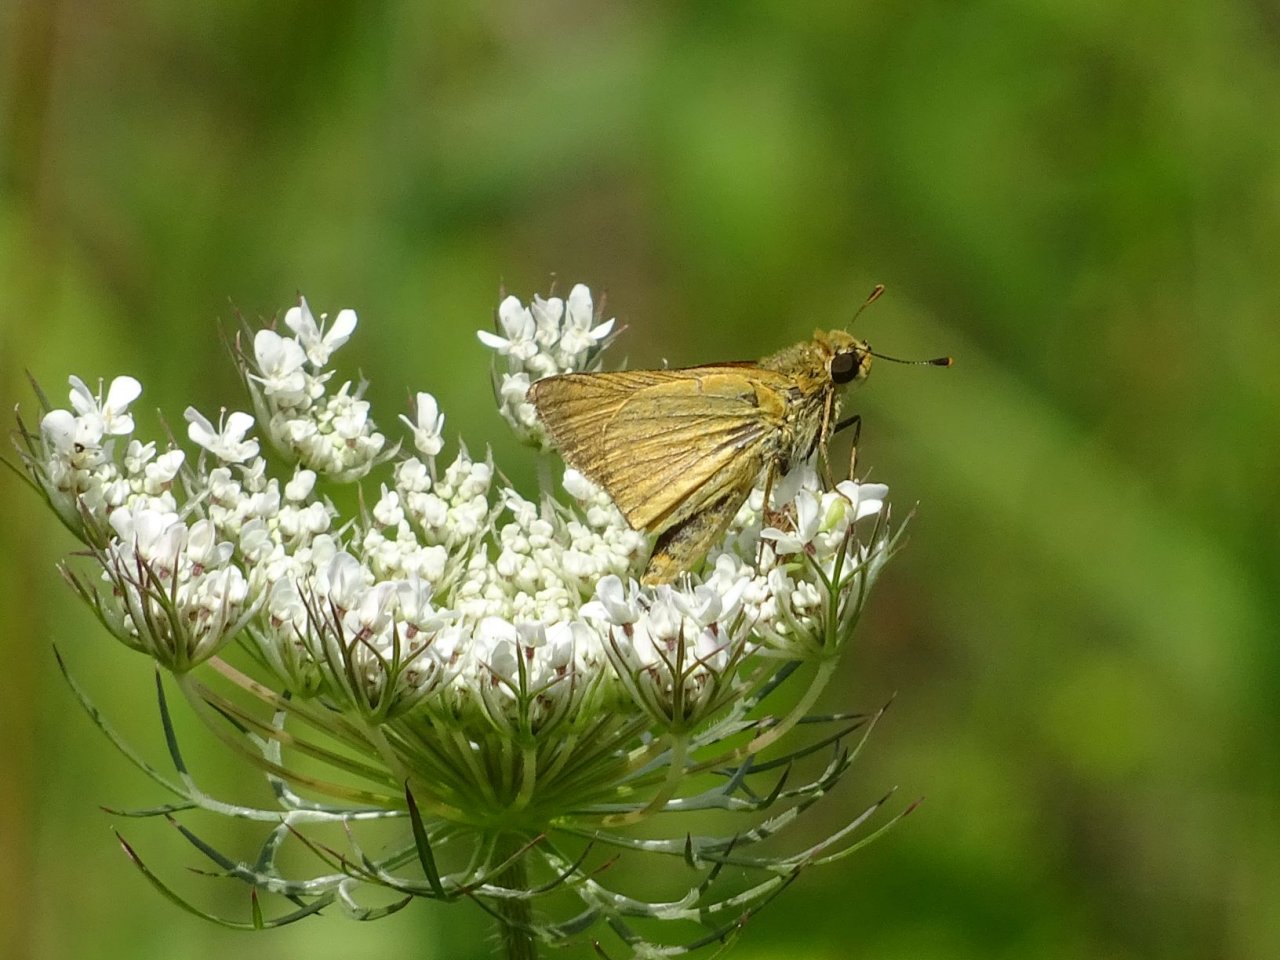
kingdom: Animalia
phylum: Arthropoda
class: Insecta
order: Lepidoptera
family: Hesperiidae
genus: Atrytone
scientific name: Atrytone delaware
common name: Delaware Skipper
